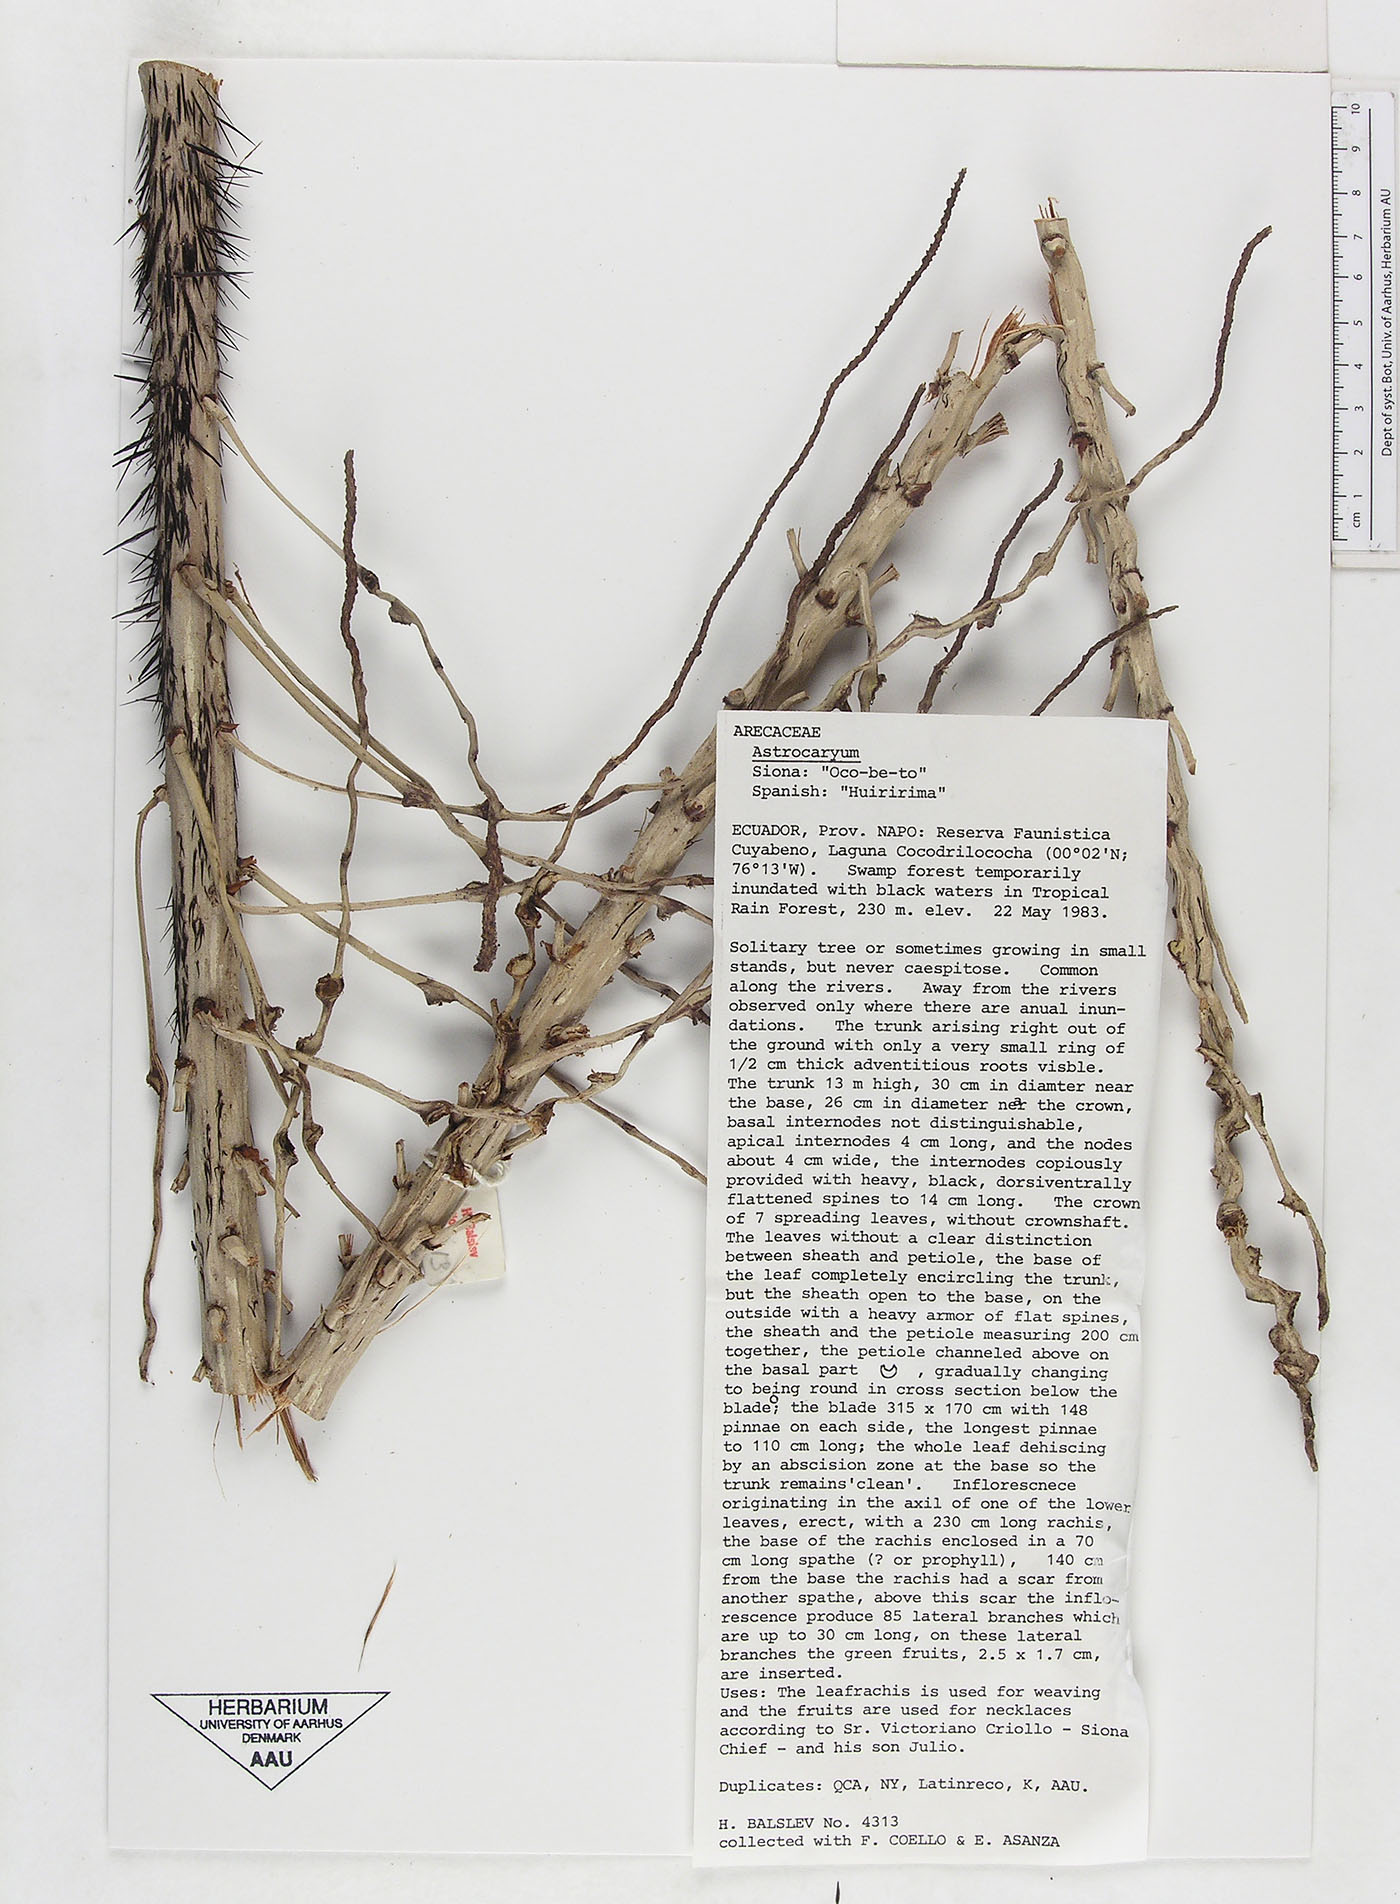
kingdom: Plantae
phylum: Tracheophyta
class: Liliopsida
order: Arecales
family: Arecaceae
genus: Astrocaryum
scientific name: Astrocaryum jauari
